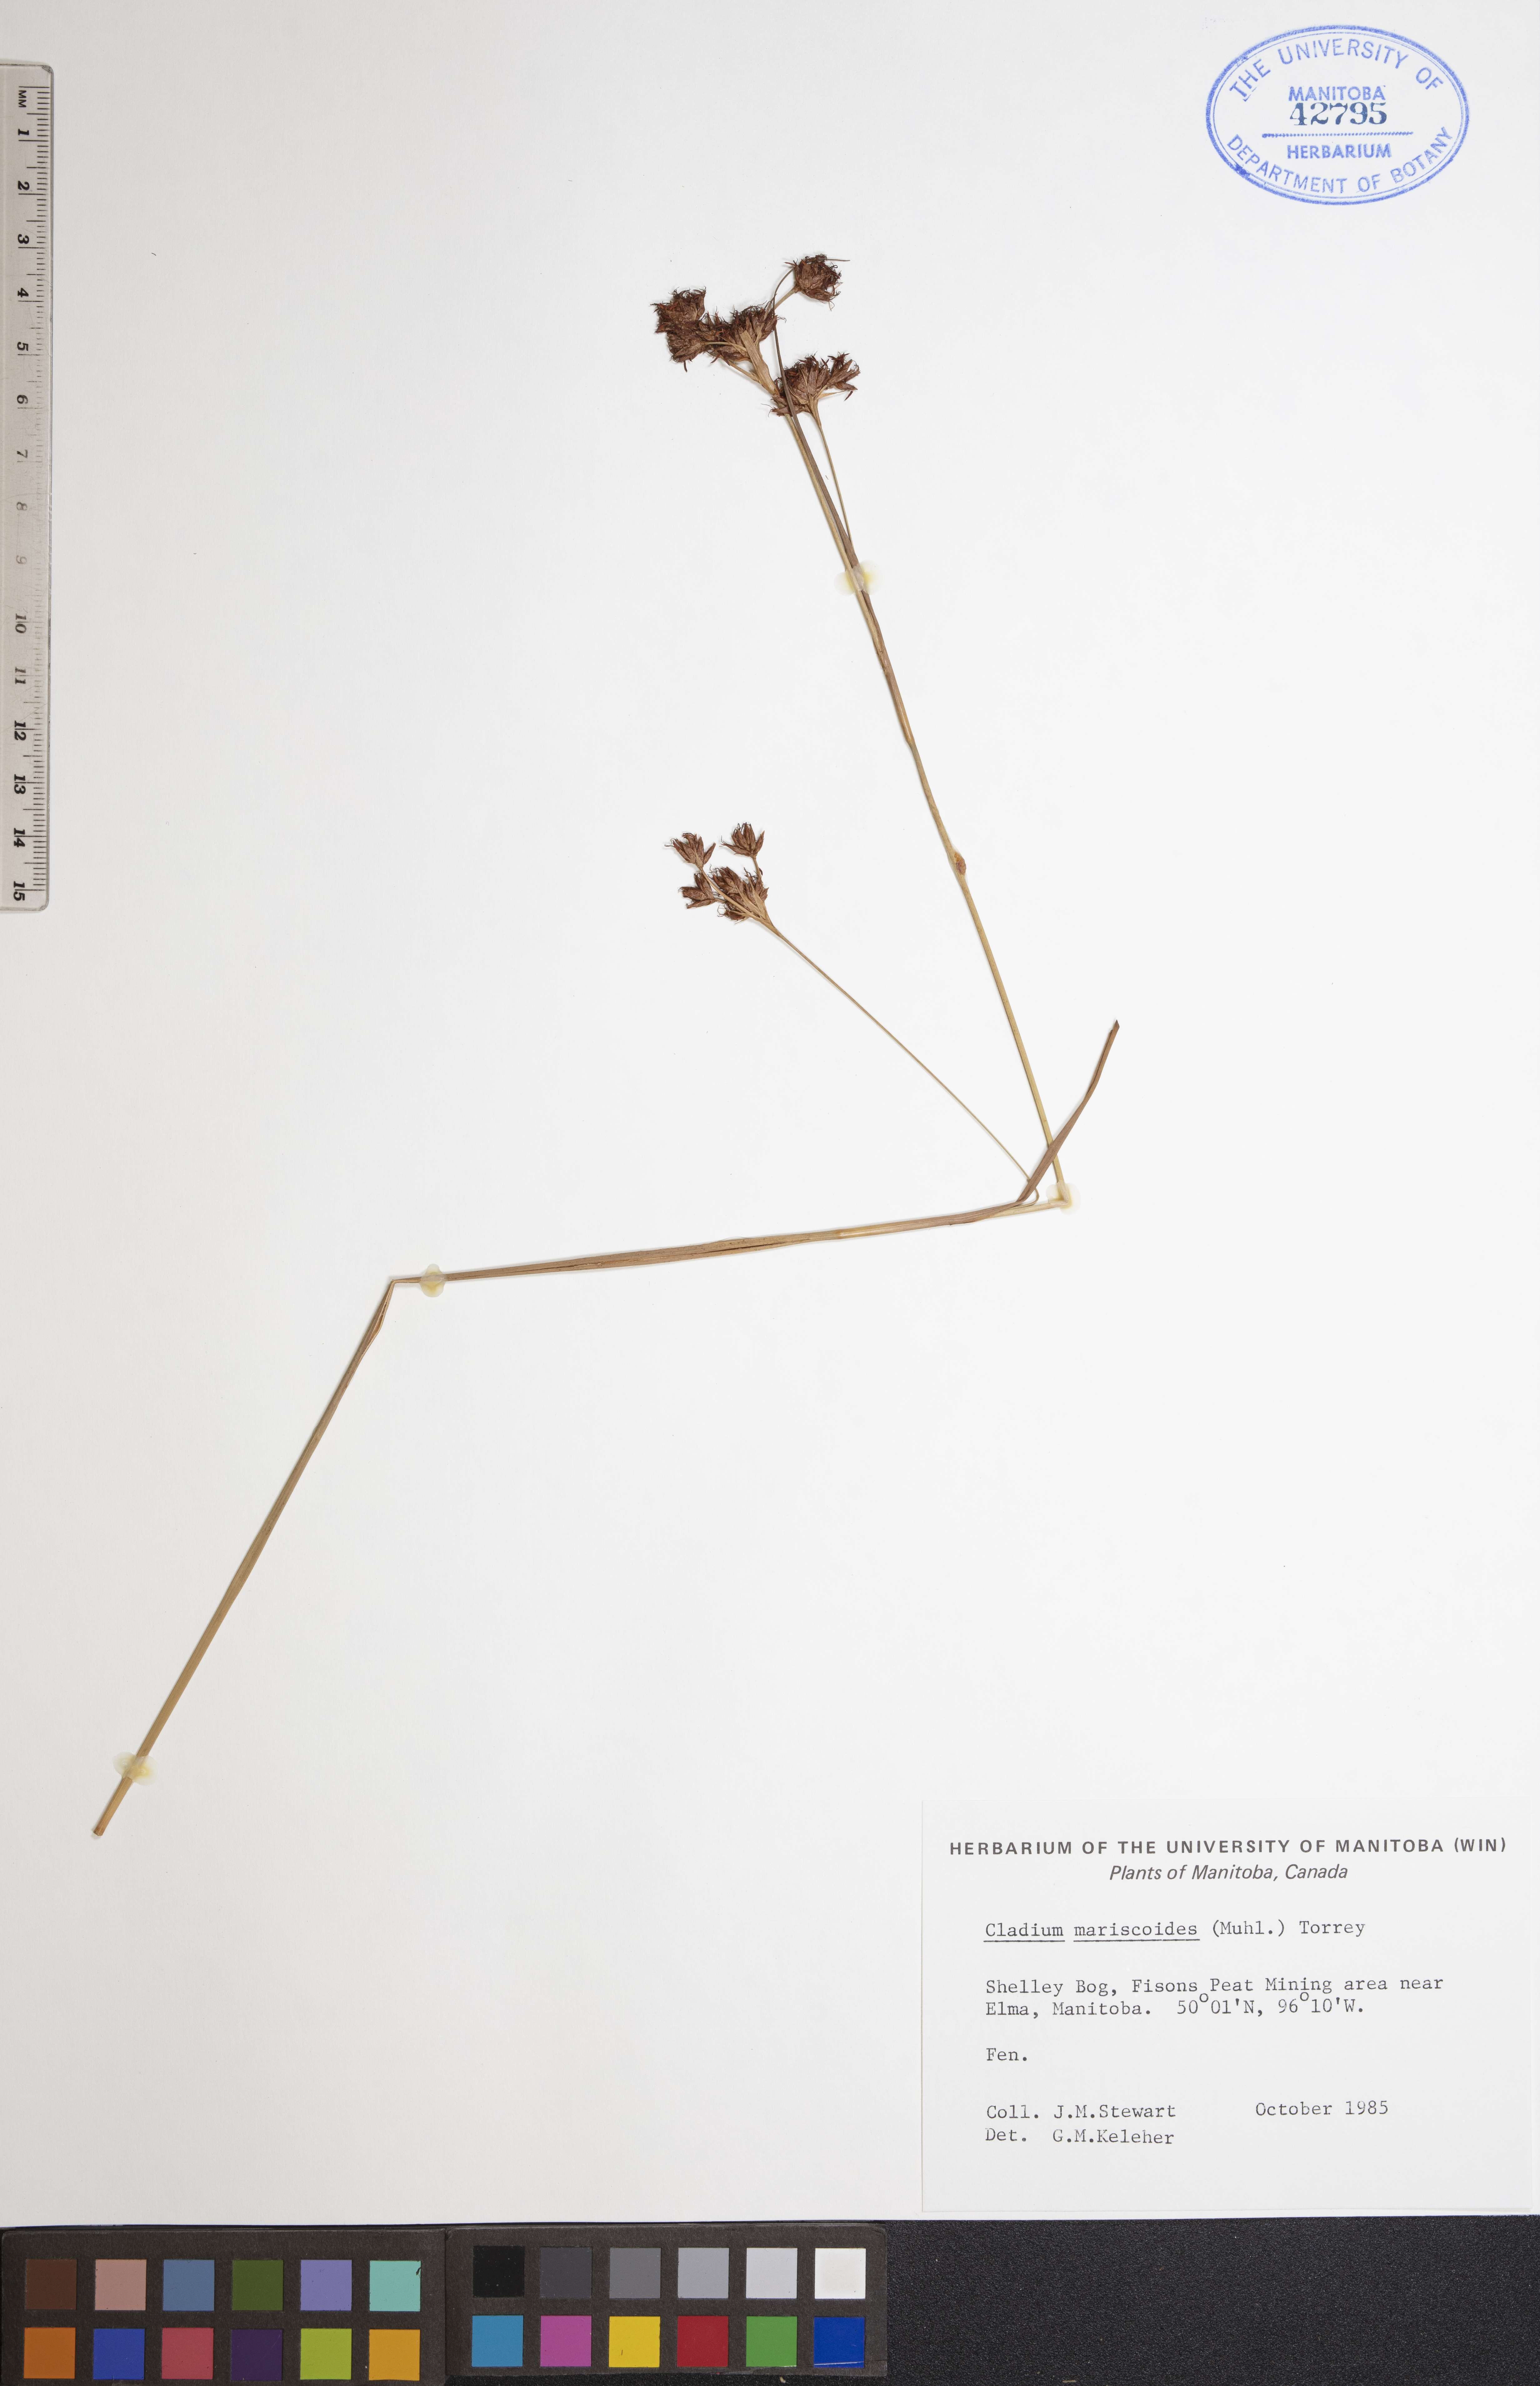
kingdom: Plantae
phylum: Tracheophyta
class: Liliopsida
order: Poales
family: Cyperaceae
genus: Cladium
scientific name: Cladium mariscoides
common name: Smooth sawgrass
